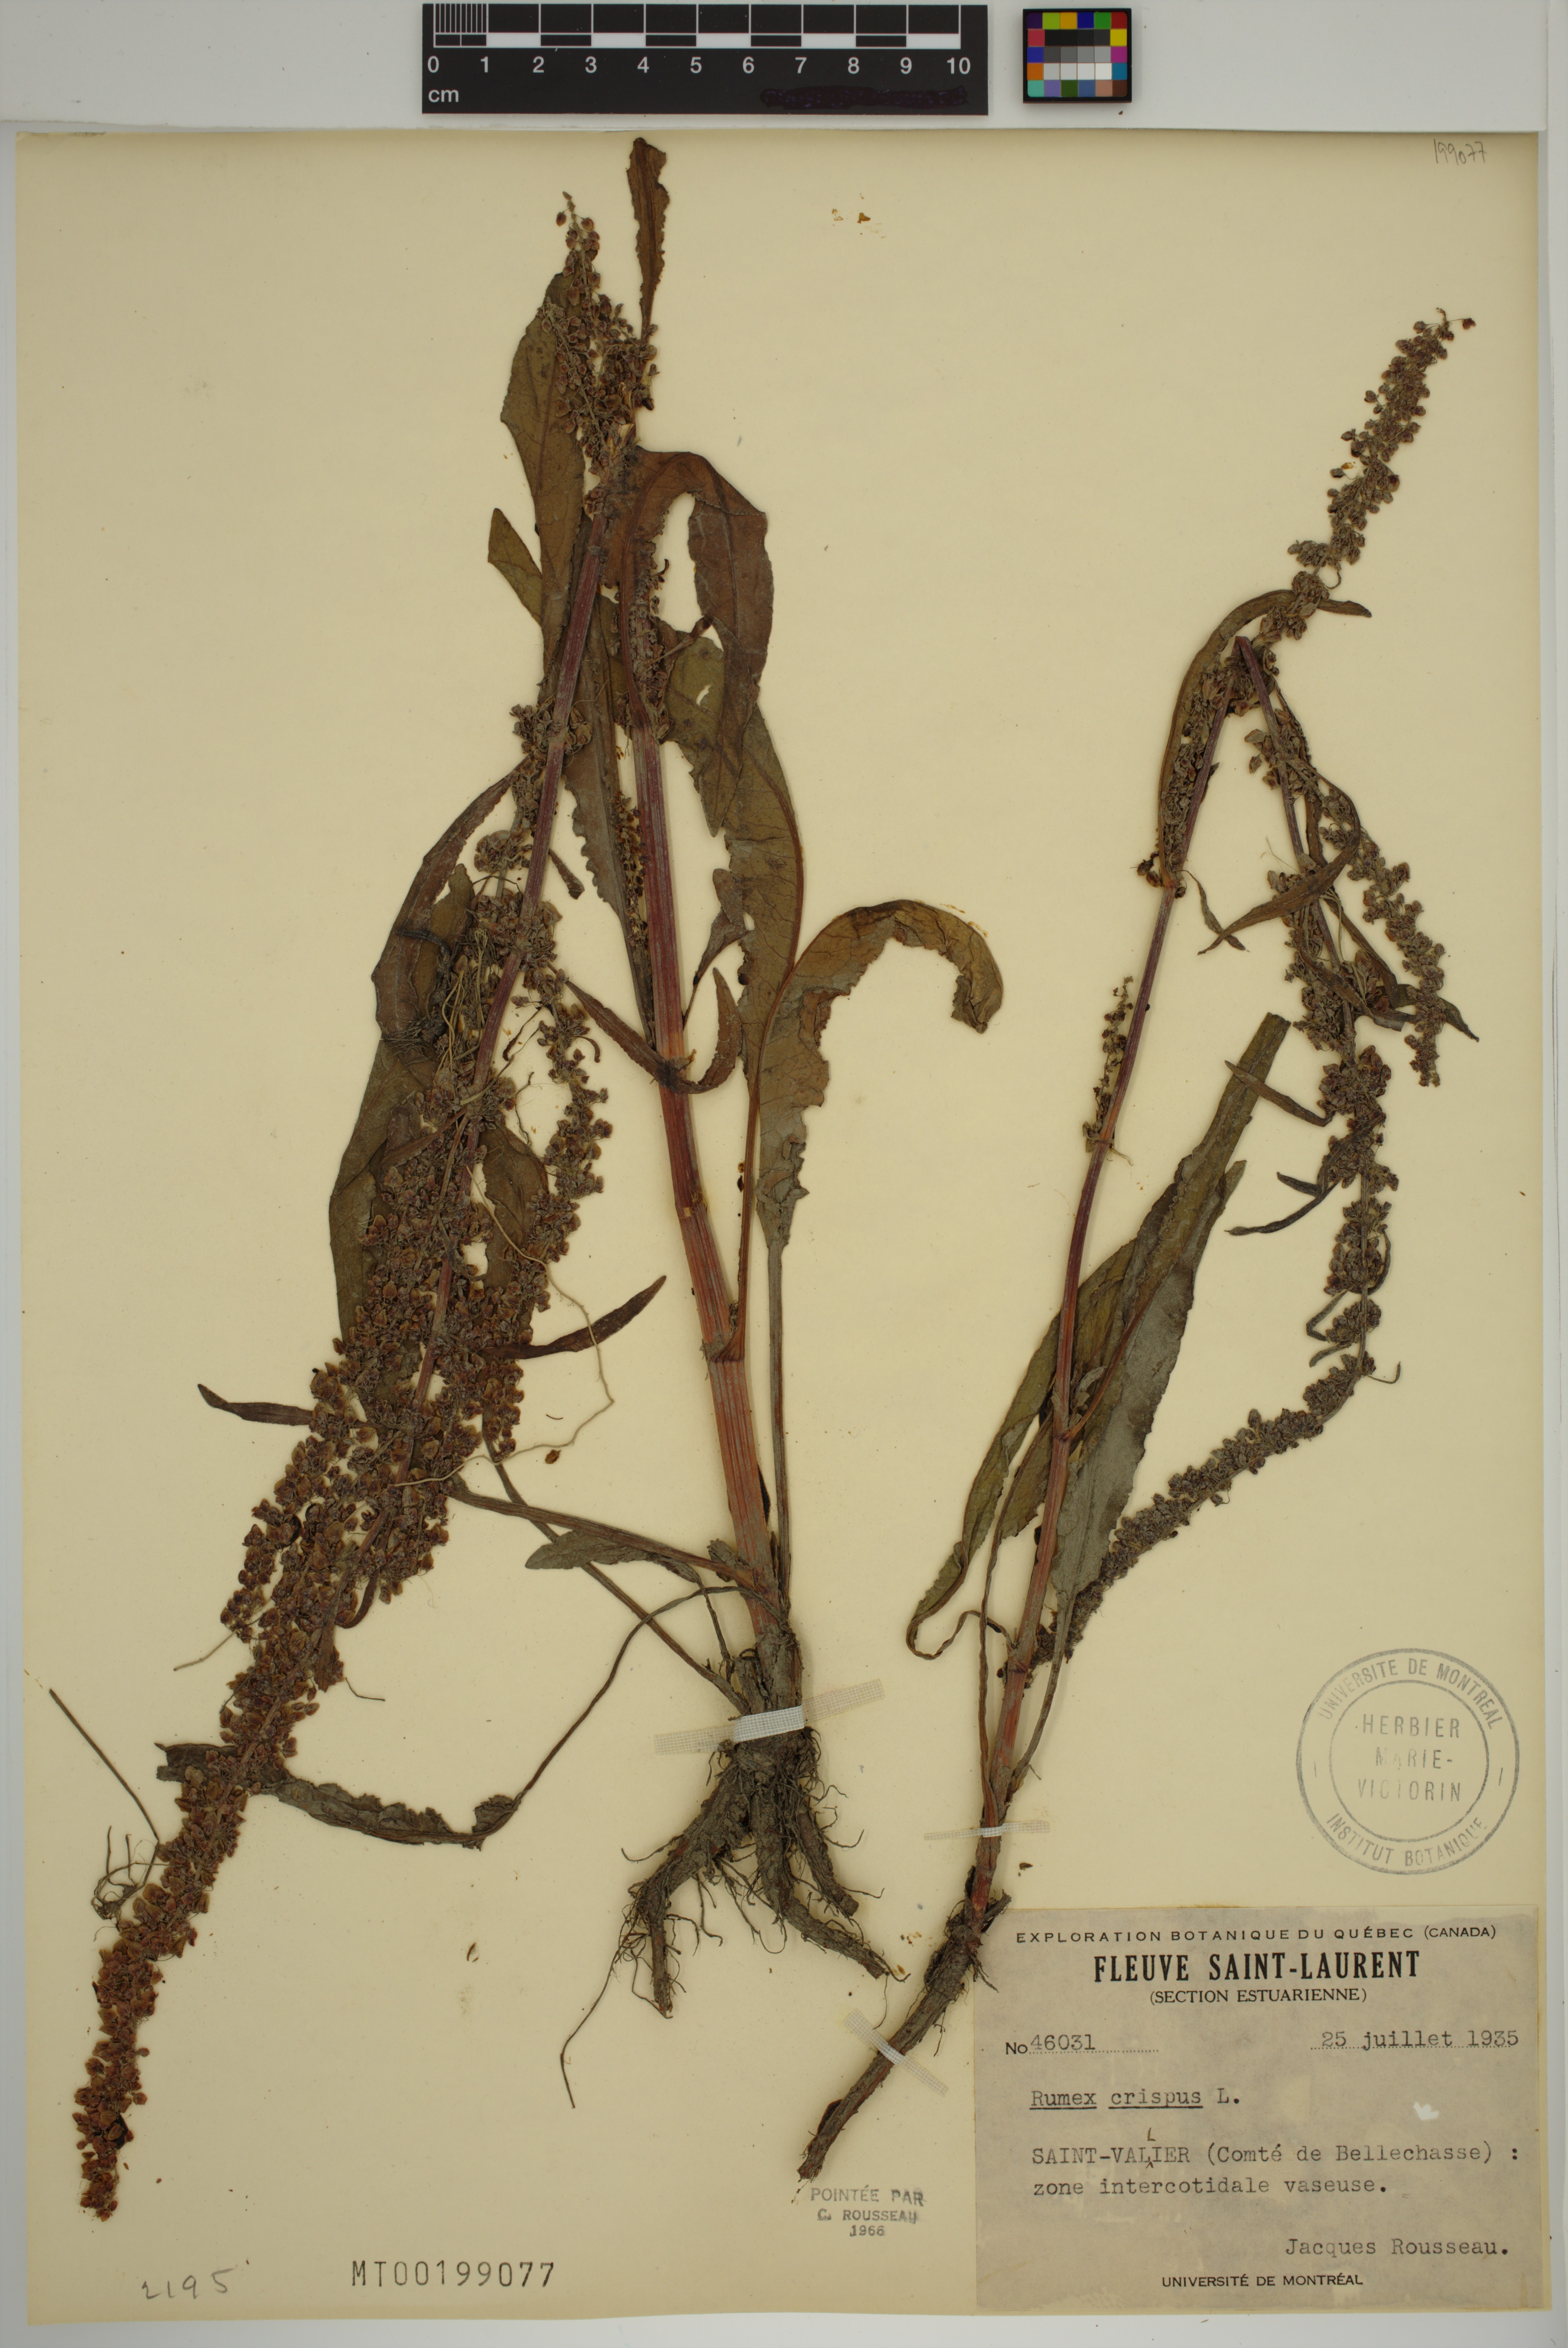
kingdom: Plantae
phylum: Tracheophyta
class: Magnoliopsida
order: Caryophyllales
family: Polygonaceae
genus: Rumex
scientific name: Rumex crispus
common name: Curled dock
